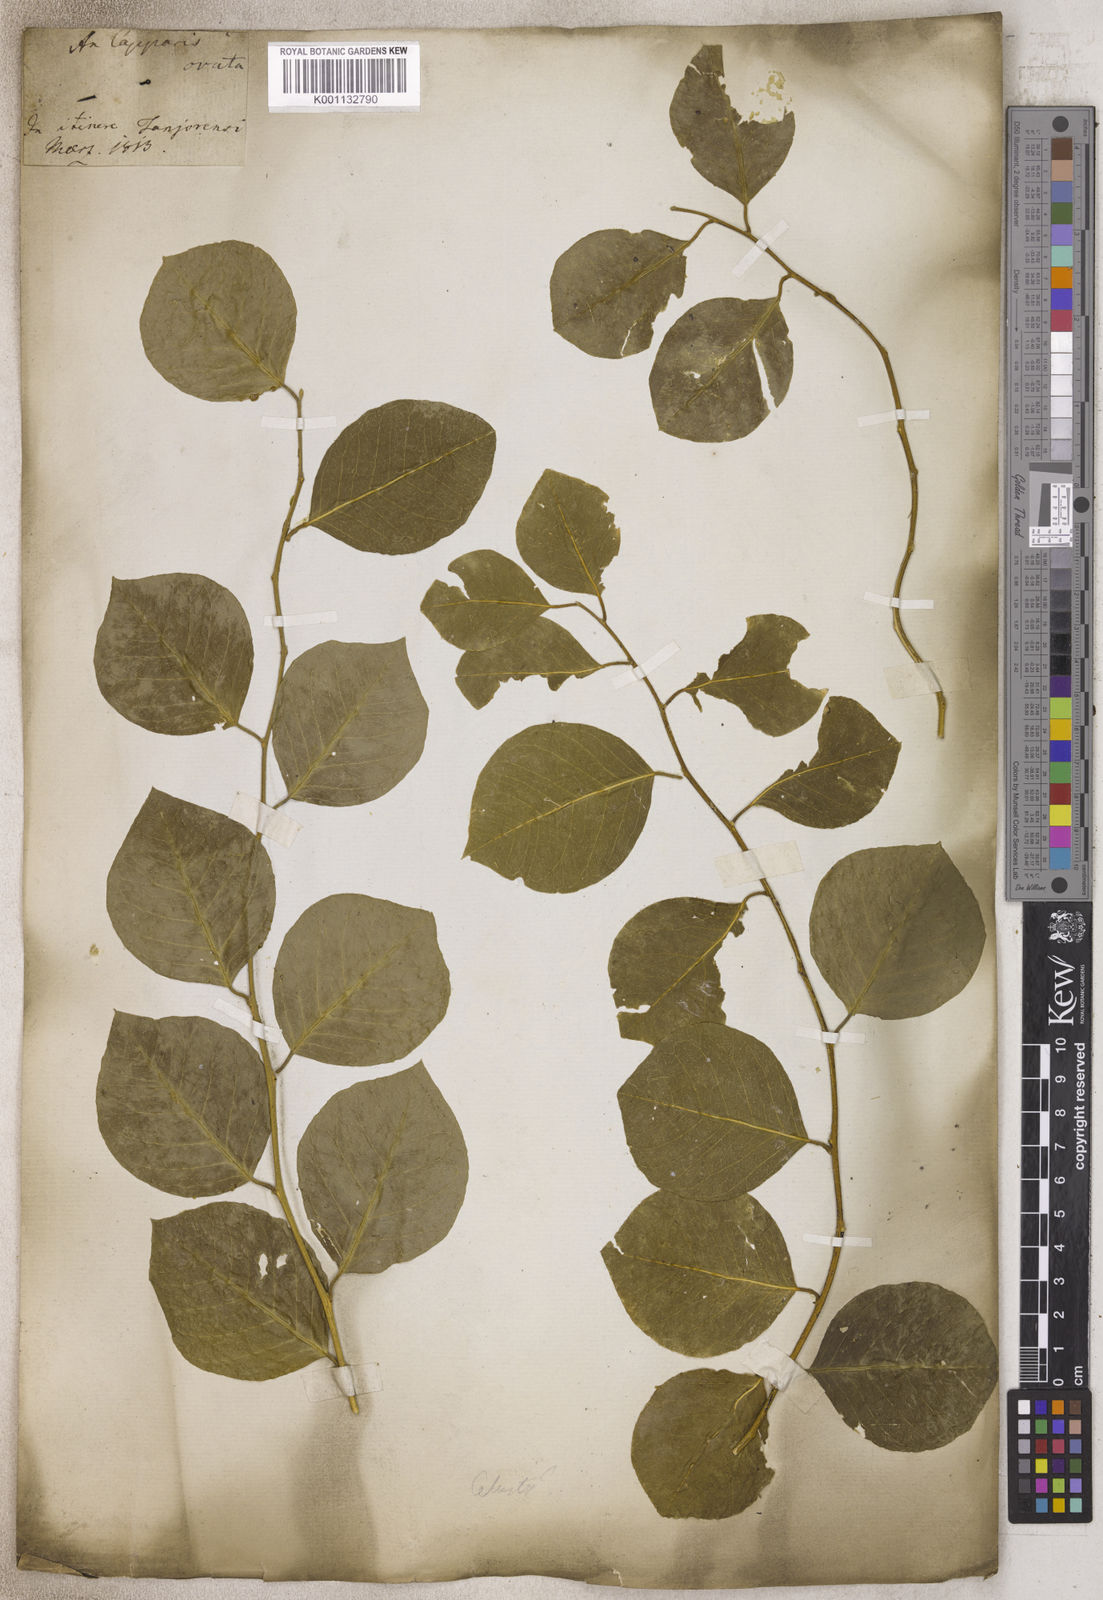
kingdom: Plantae
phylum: Tracheophyta
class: Magnoliopsida
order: Brassicales
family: Capparaceae
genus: Capparis
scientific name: Capparis spinosa
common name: Caper
